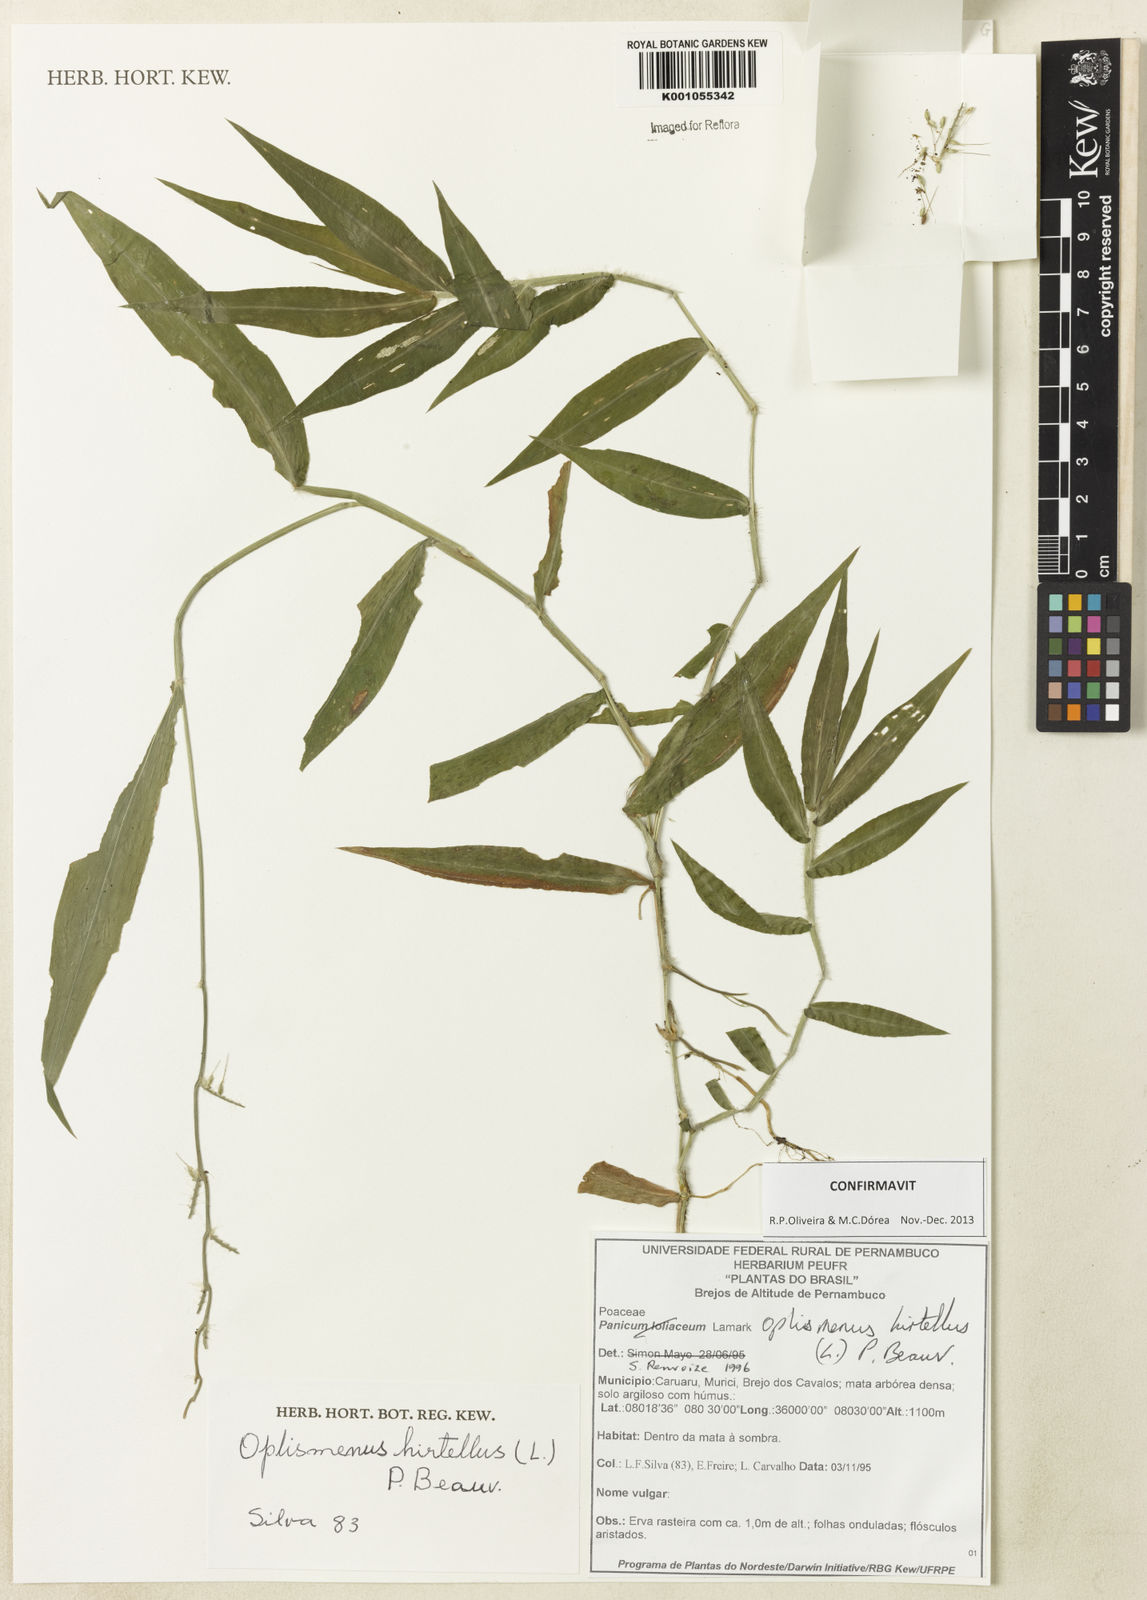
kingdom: Plantae
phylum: Tracheophyta
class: Liliopsida
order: Poales
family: Poaceae
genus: Oplismenus
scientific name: Oplismenus hirtellus
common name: Basketgrass
